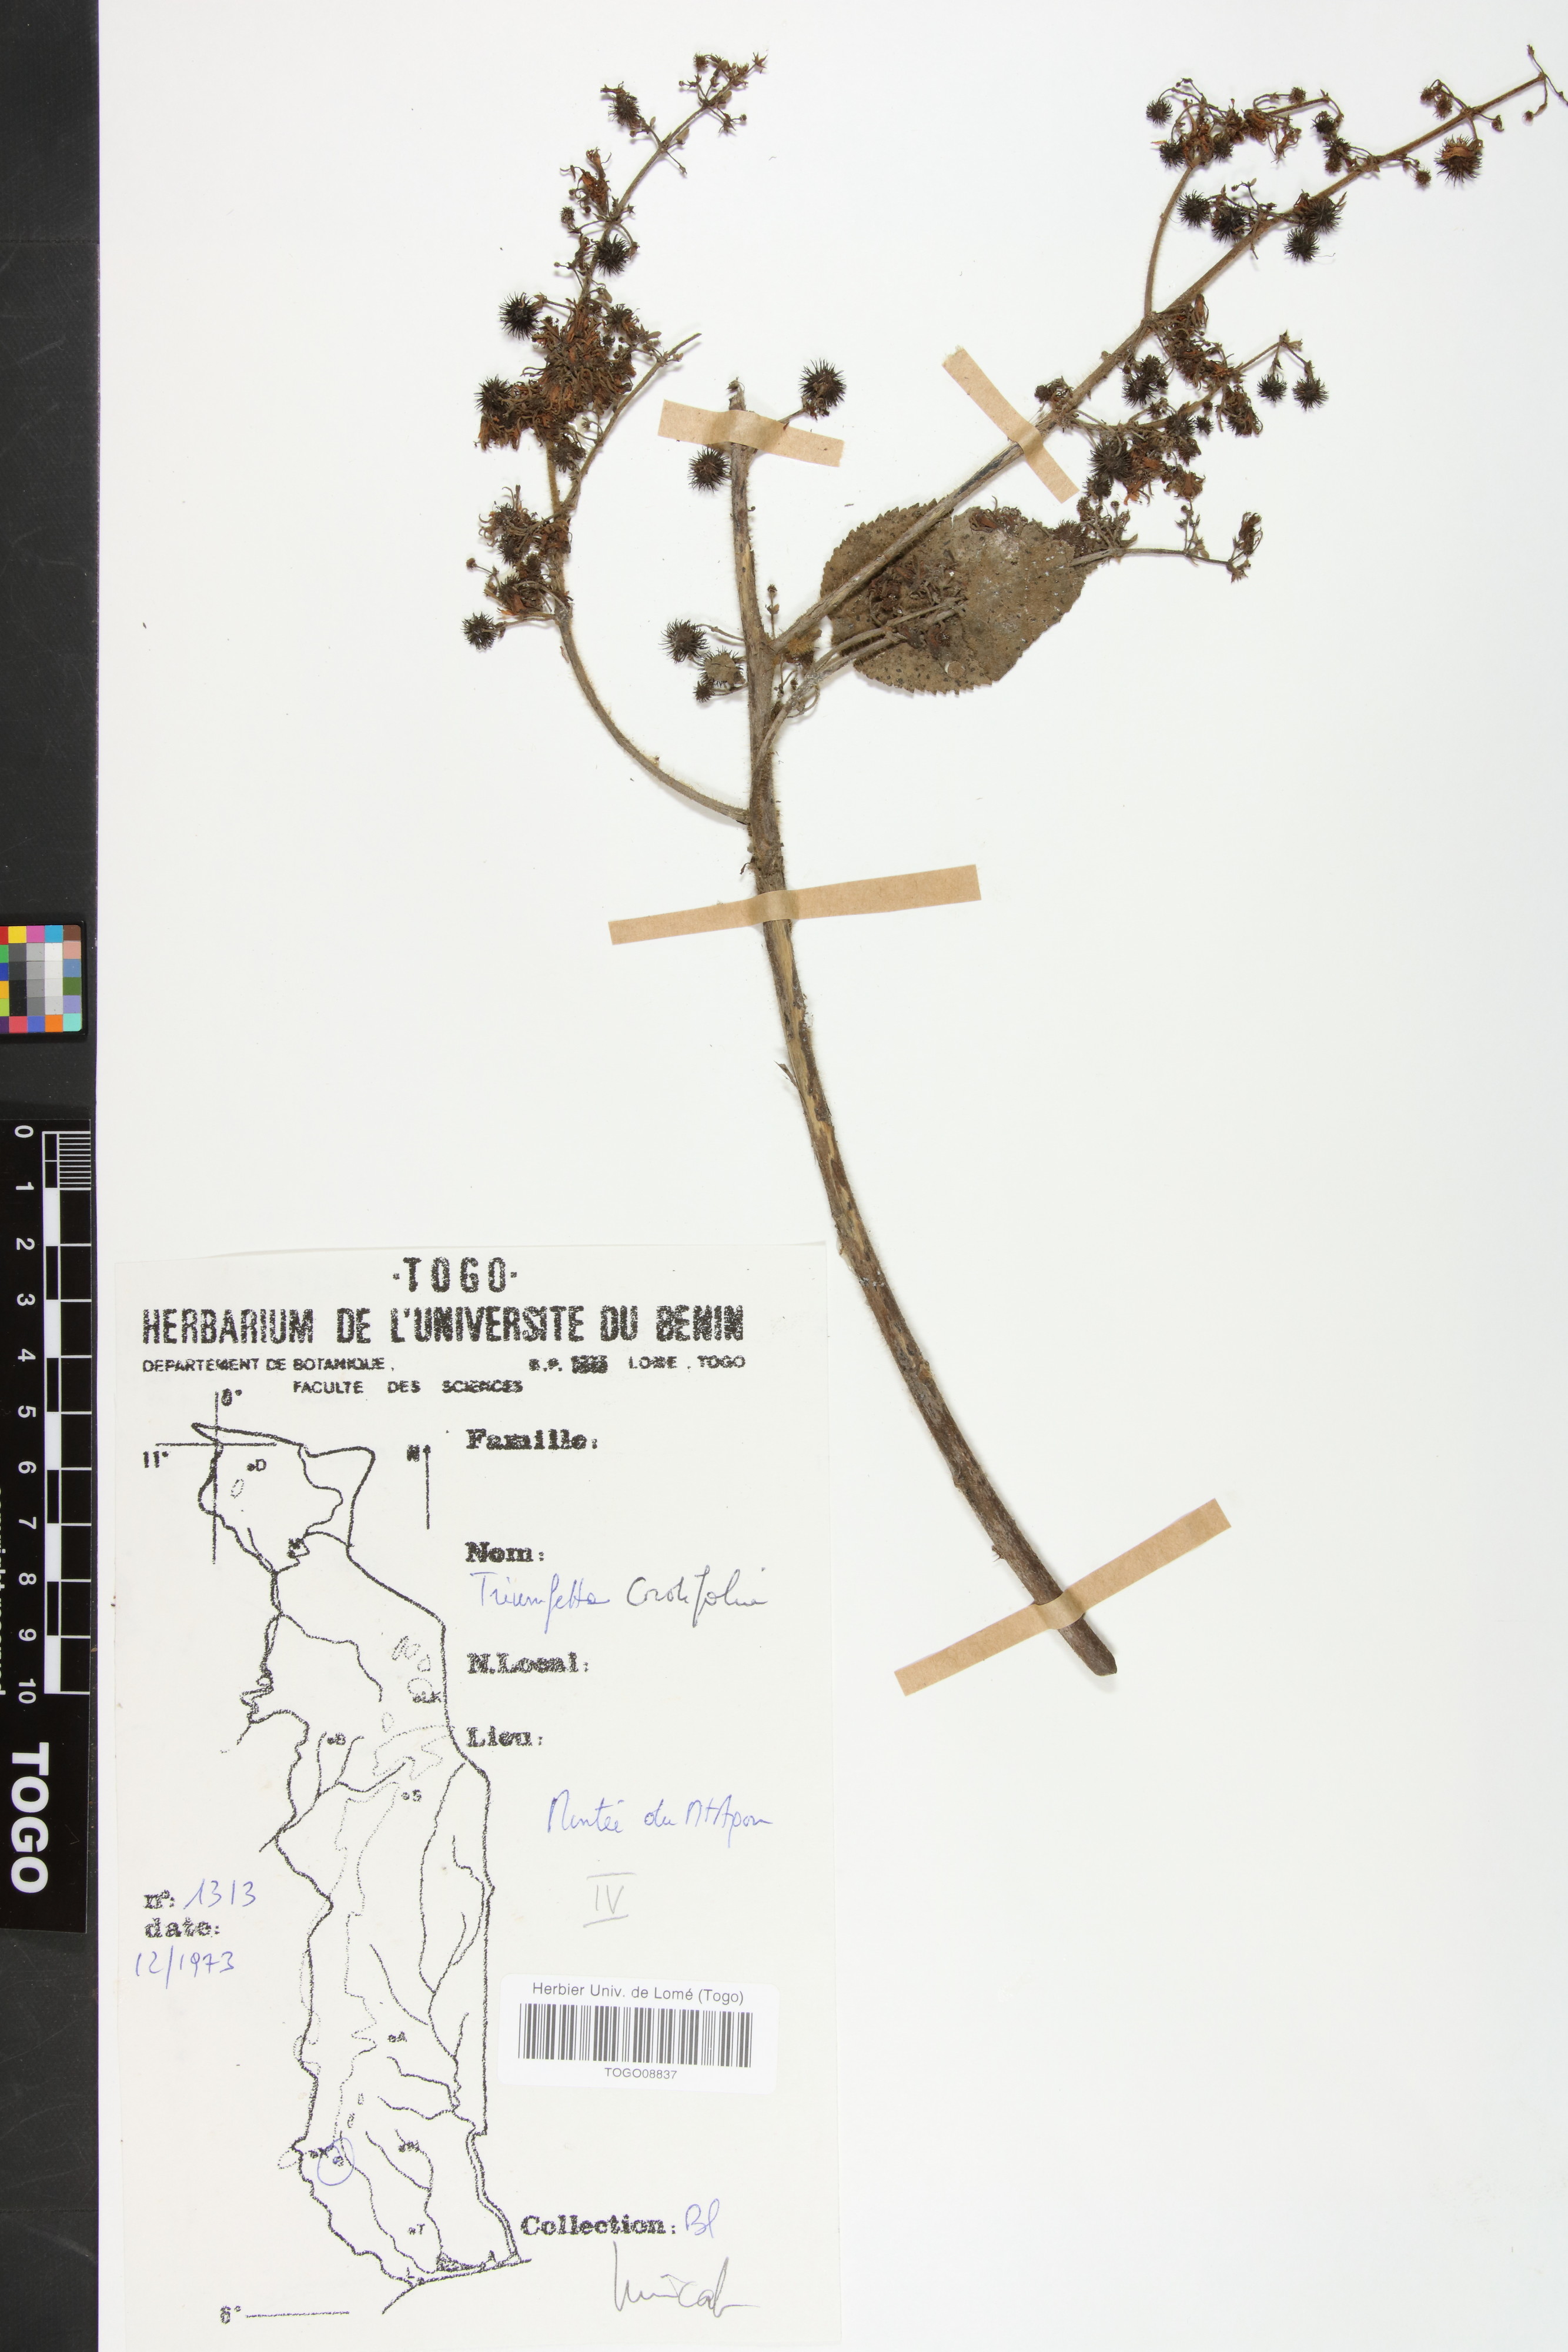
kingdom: Plantae
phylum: Tracheophyta
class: Magnoliopsida
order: Malvales
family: Malvaceae
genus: Triumfetta
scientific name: Triumfetta cordifolia
